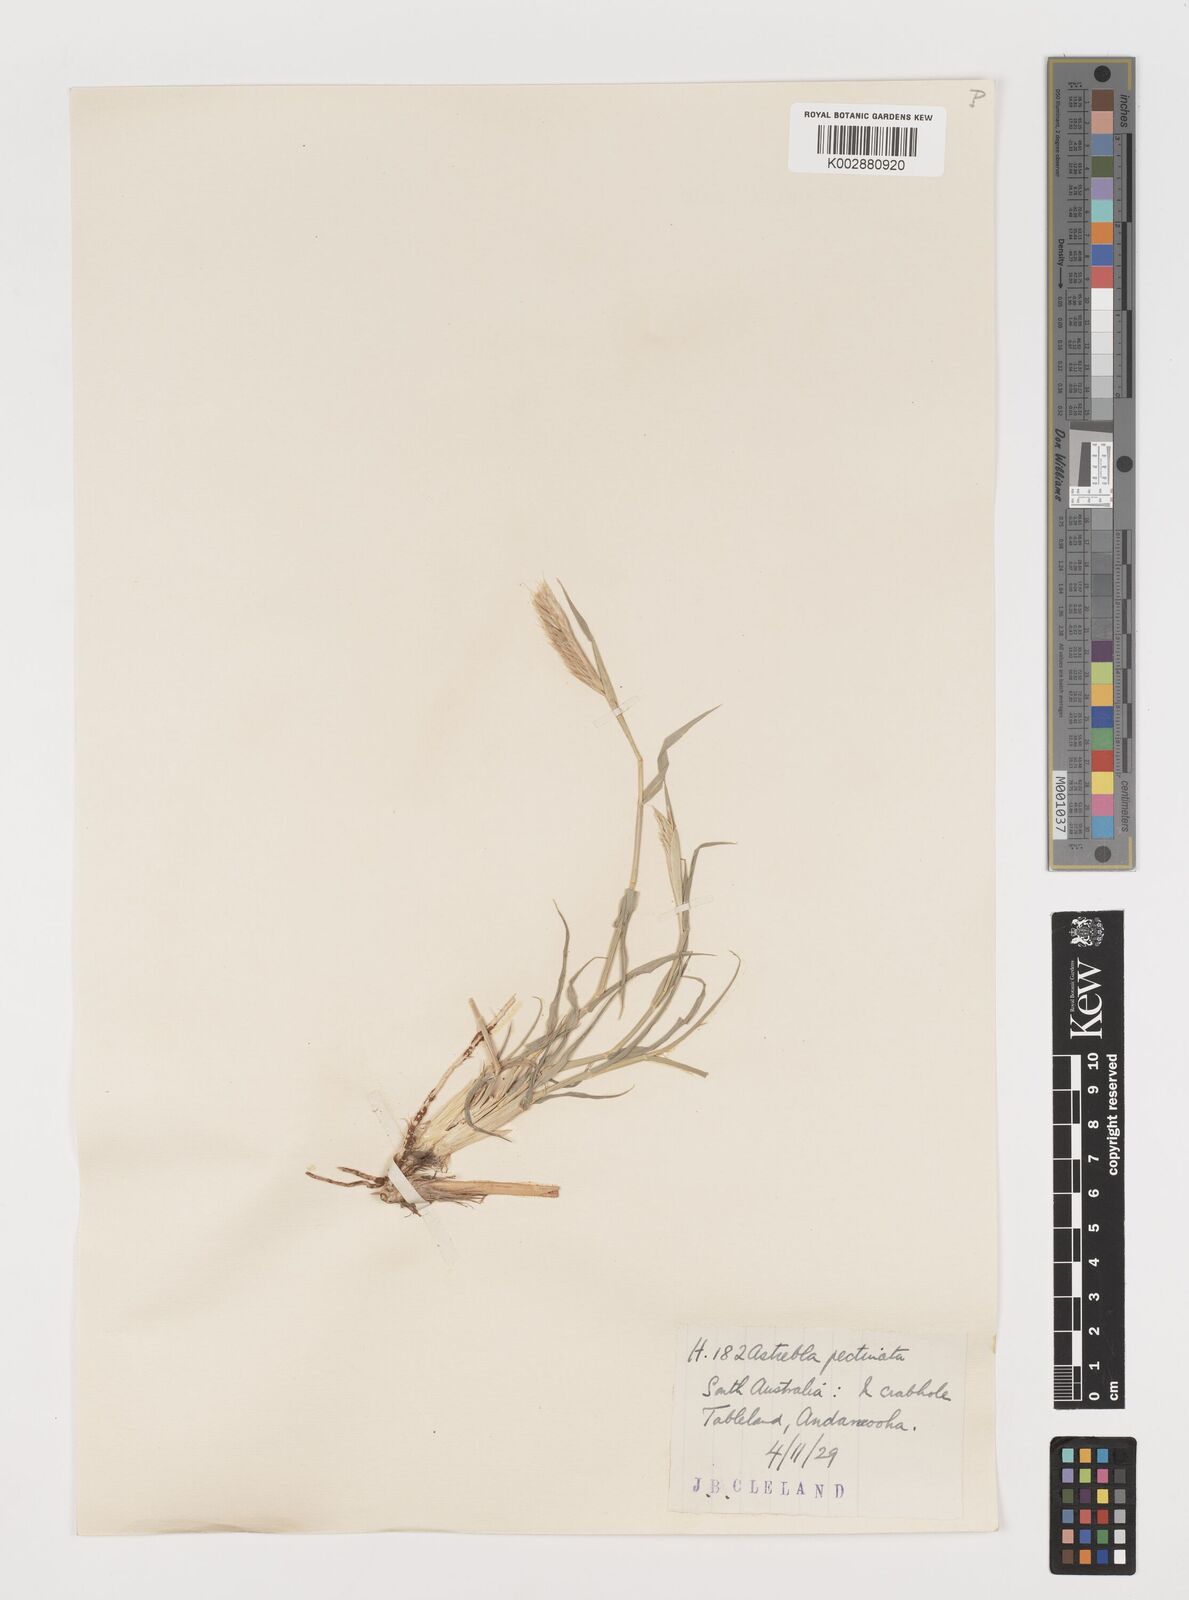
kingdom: Plantae
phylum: Tracheophyta
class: Liliopsida
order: Poales
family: Poaceae
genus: Astrebla
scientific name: Astrebla pectinata
